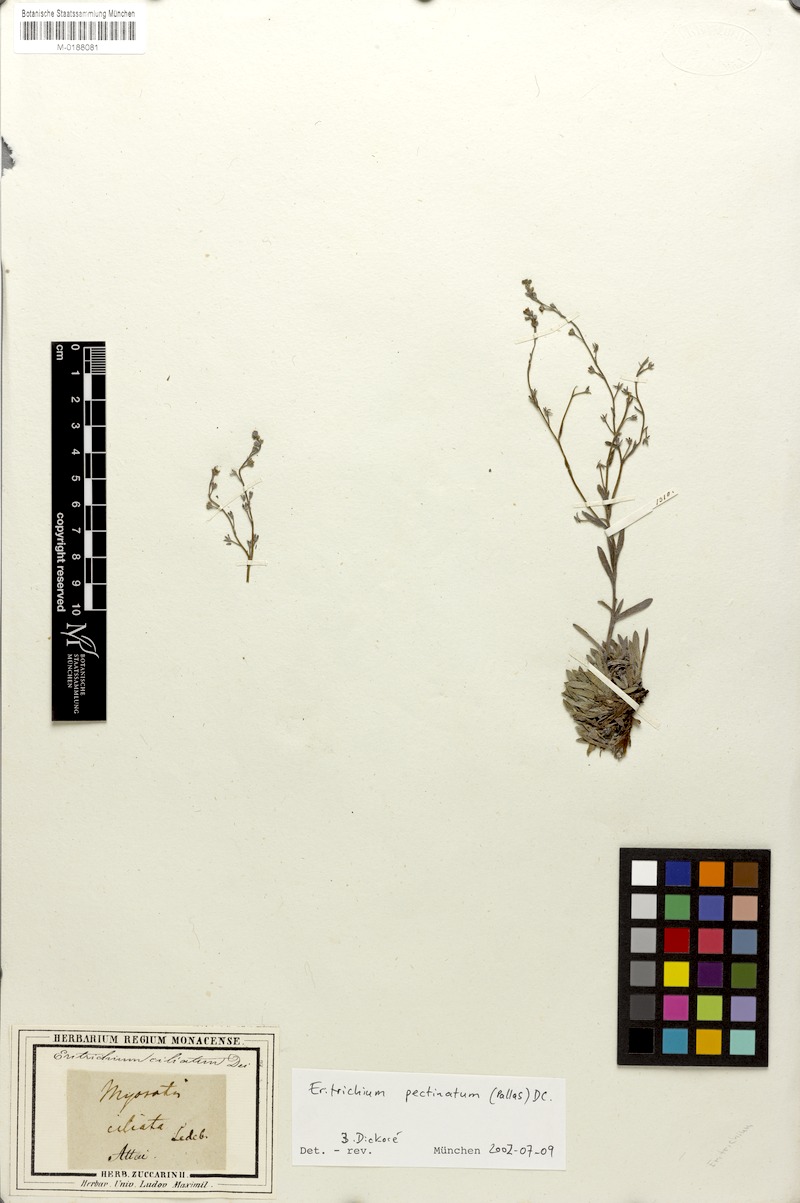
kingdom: Plantae
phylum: Tracheophyta
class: Magnoliopsida
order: Boraginales
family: Boraginaceae
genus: Eritrichium
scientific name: Eritrichium pectinatum
